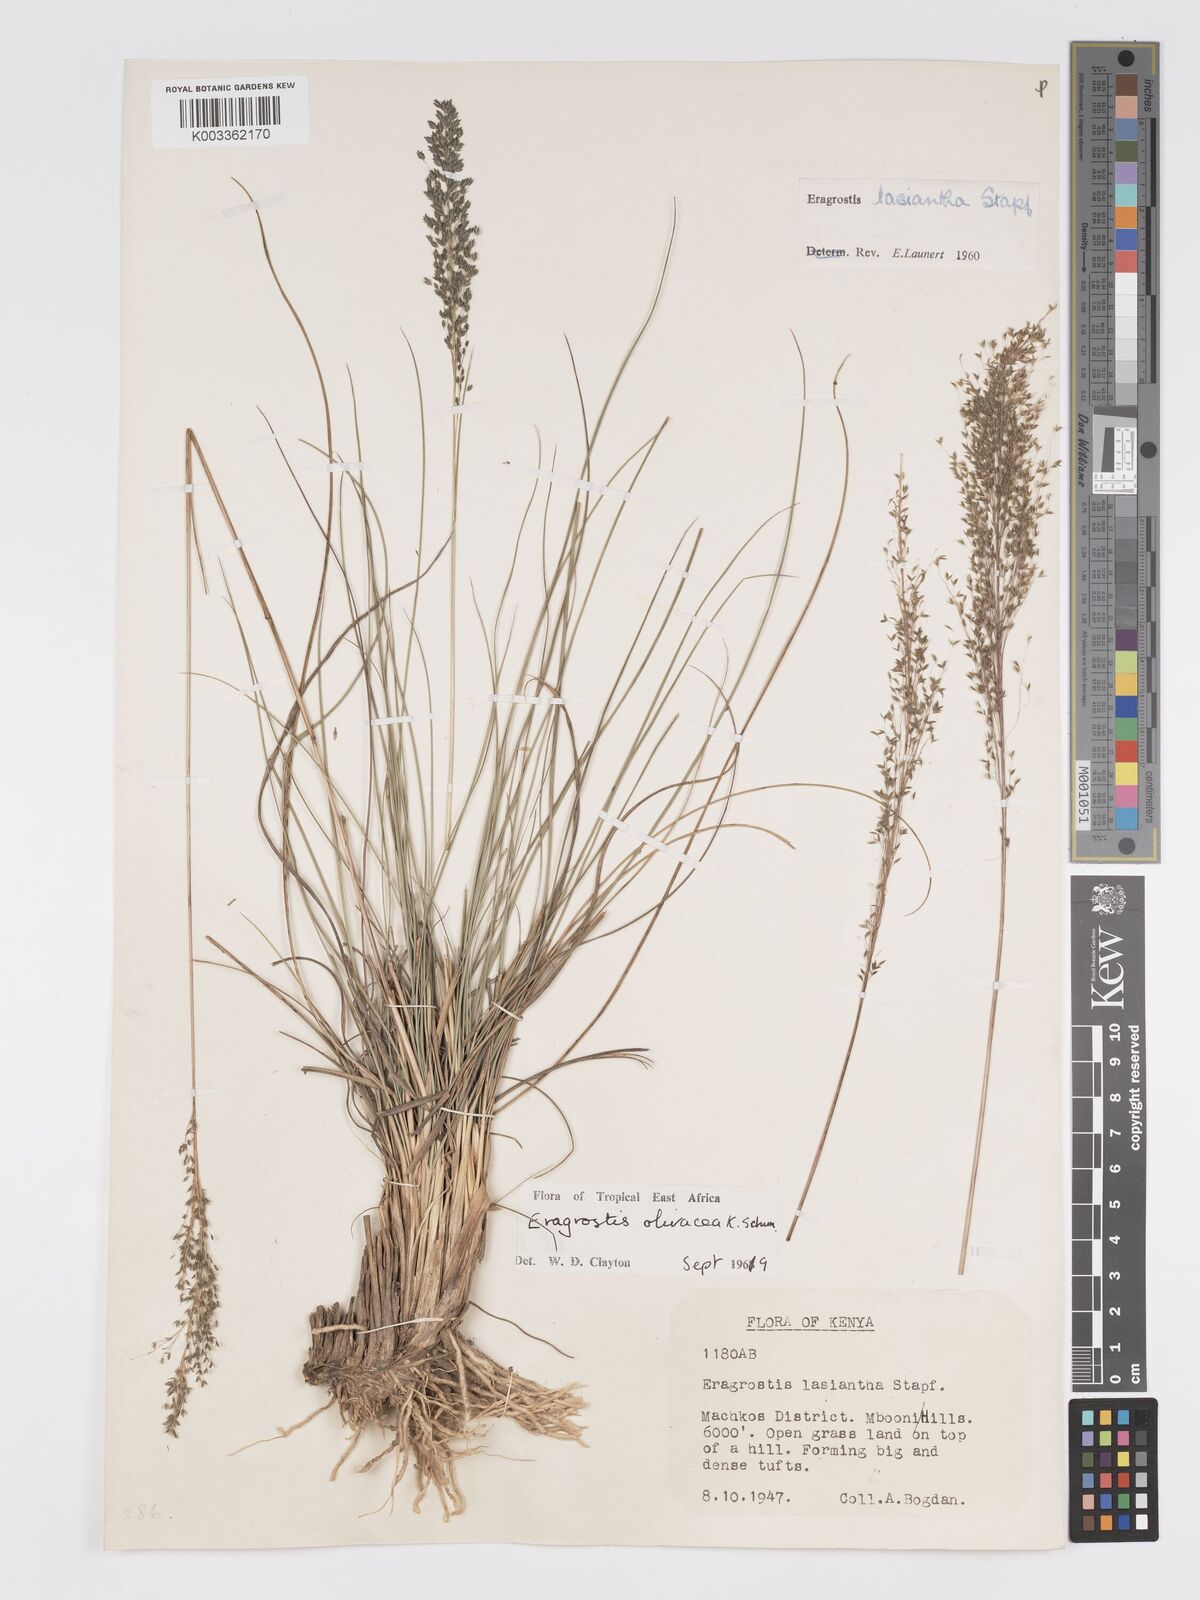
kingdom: Plantae
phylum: Tracheophyta
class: Liliopsida
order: Poales
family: Poaceae
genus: Eragrostis
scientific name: Eragrostis olivacea
